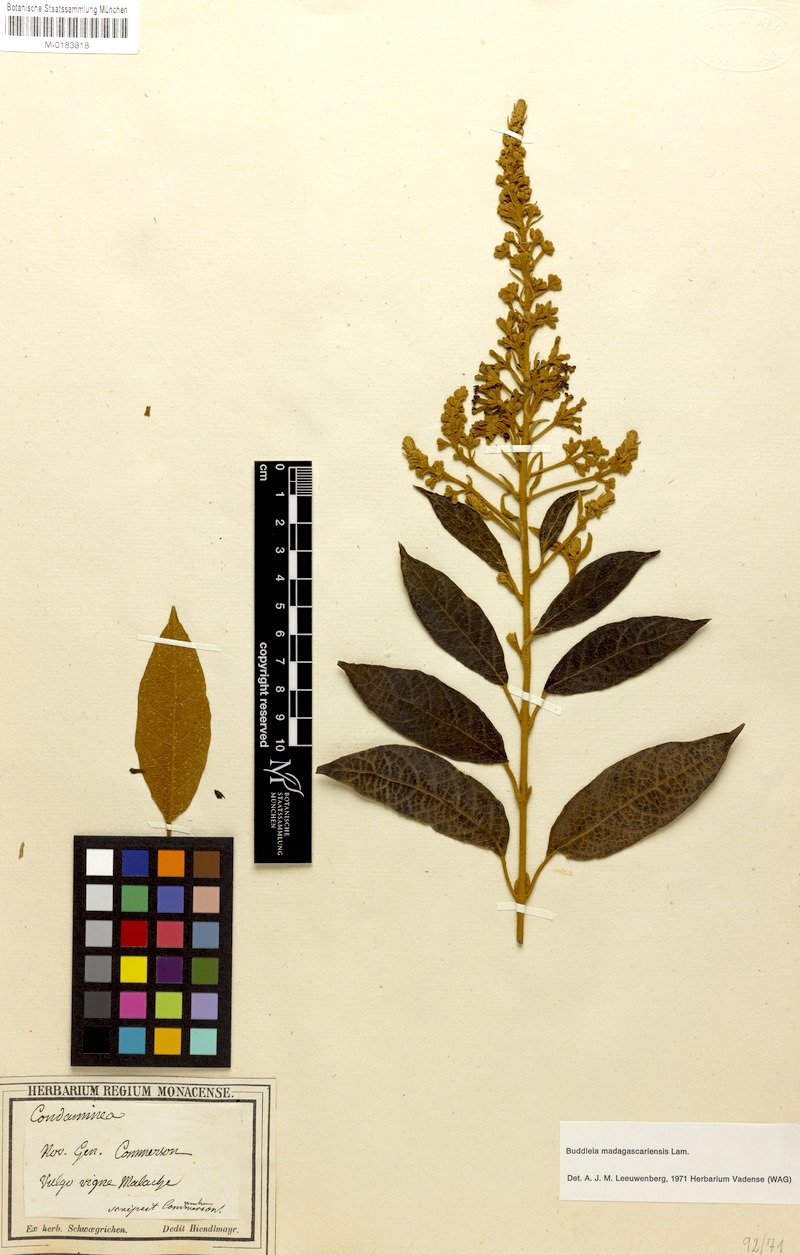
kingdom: Plantae
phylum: Tracheophyta
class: Magnoliopsida
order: Lamiales
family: Scrophulariaceae
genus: Buddleja
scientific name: Buddleja madagascariensis
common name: Smokebush
